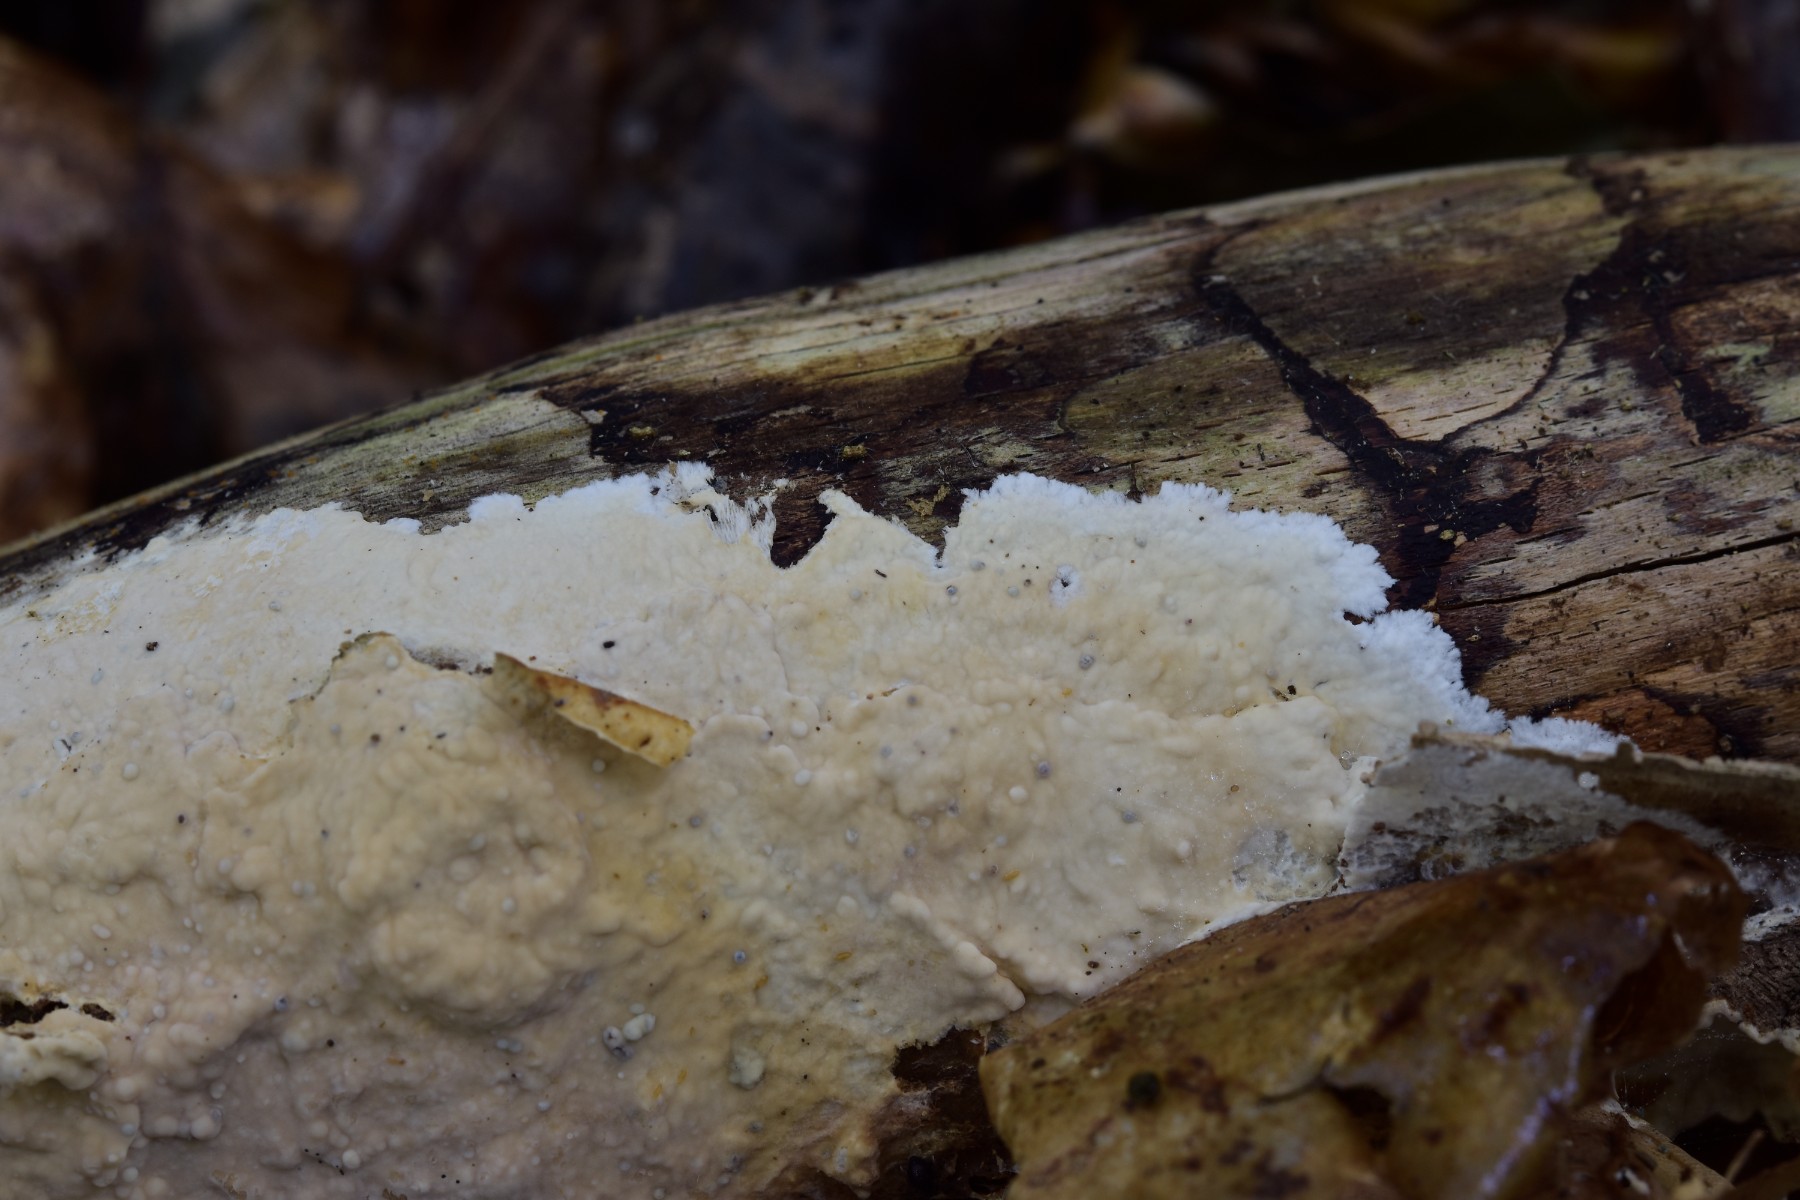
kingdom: Fungi
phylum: Basidiomycota
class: Agaricomycetes
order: Polyporales
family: Phanerochaetaceae
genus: Phanerochaete
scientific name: Phanerochaete laevis
